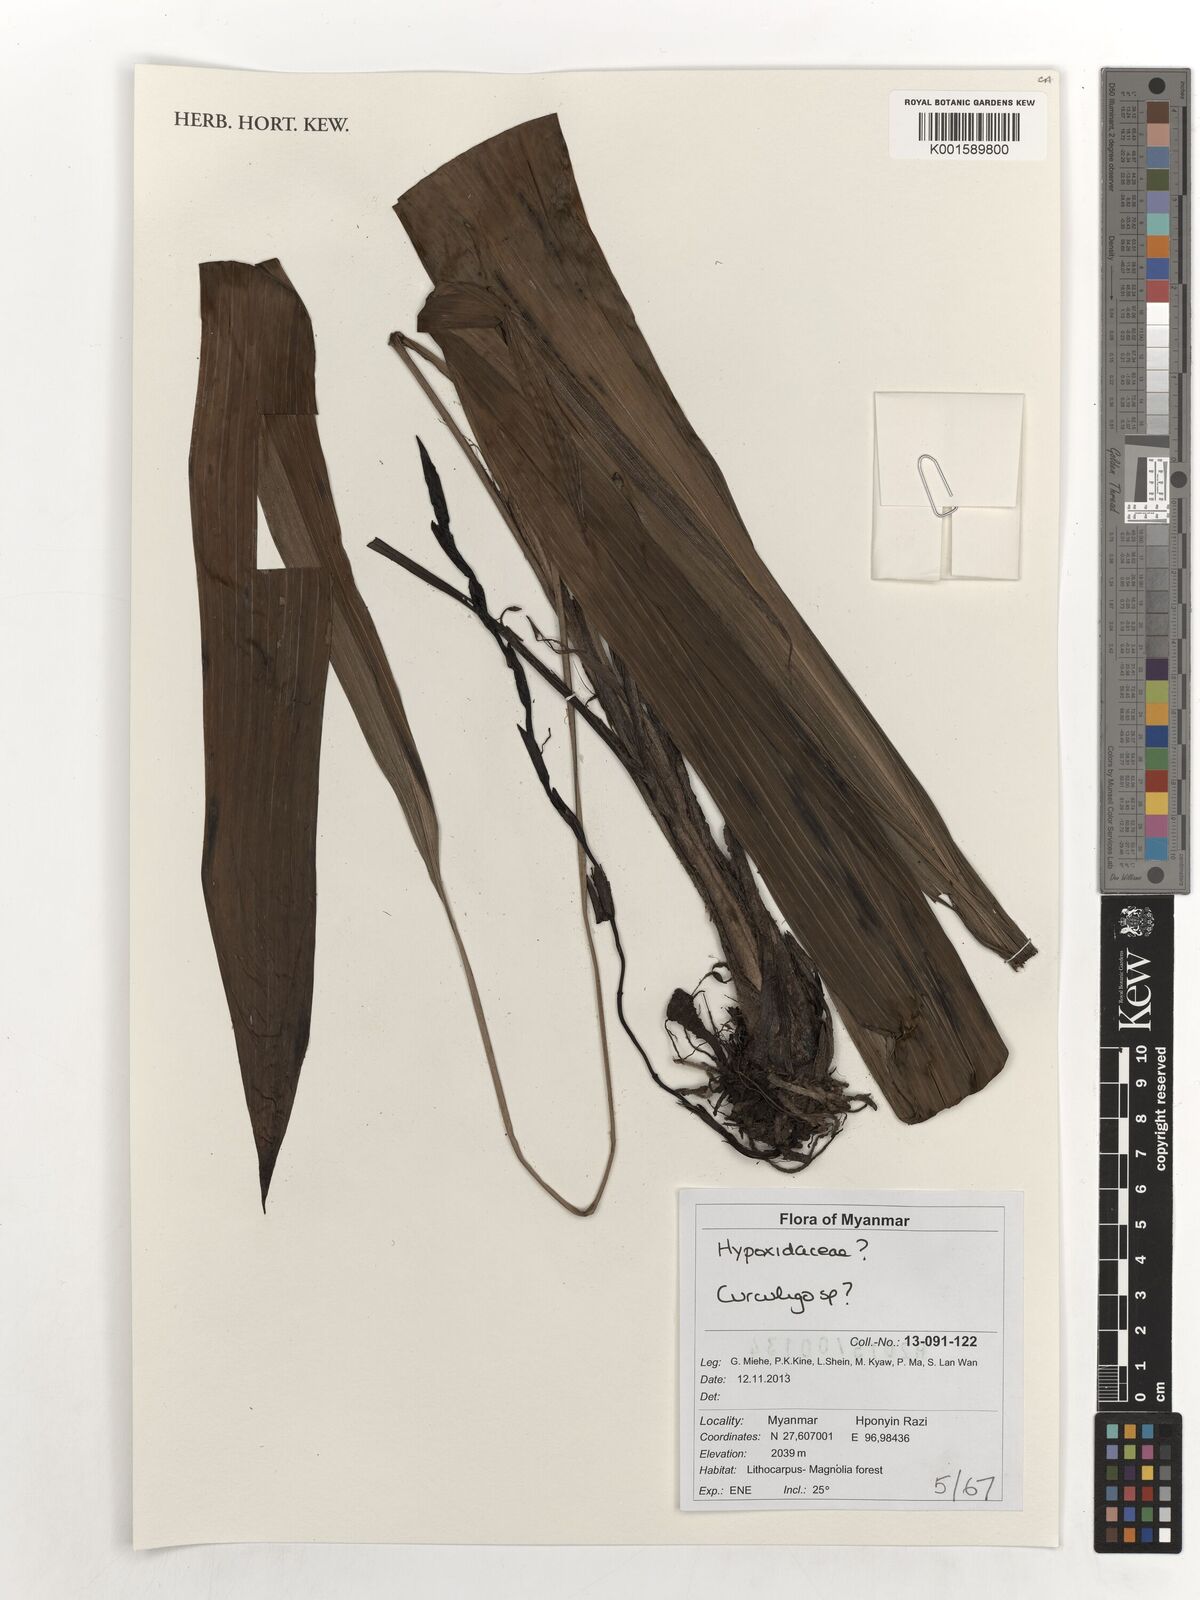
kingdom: Plantae
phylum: Tracheophyta
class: Liliopsida
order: Asparagales
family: Hypoxidaceae
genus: Curculigo
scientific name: Curculigo
